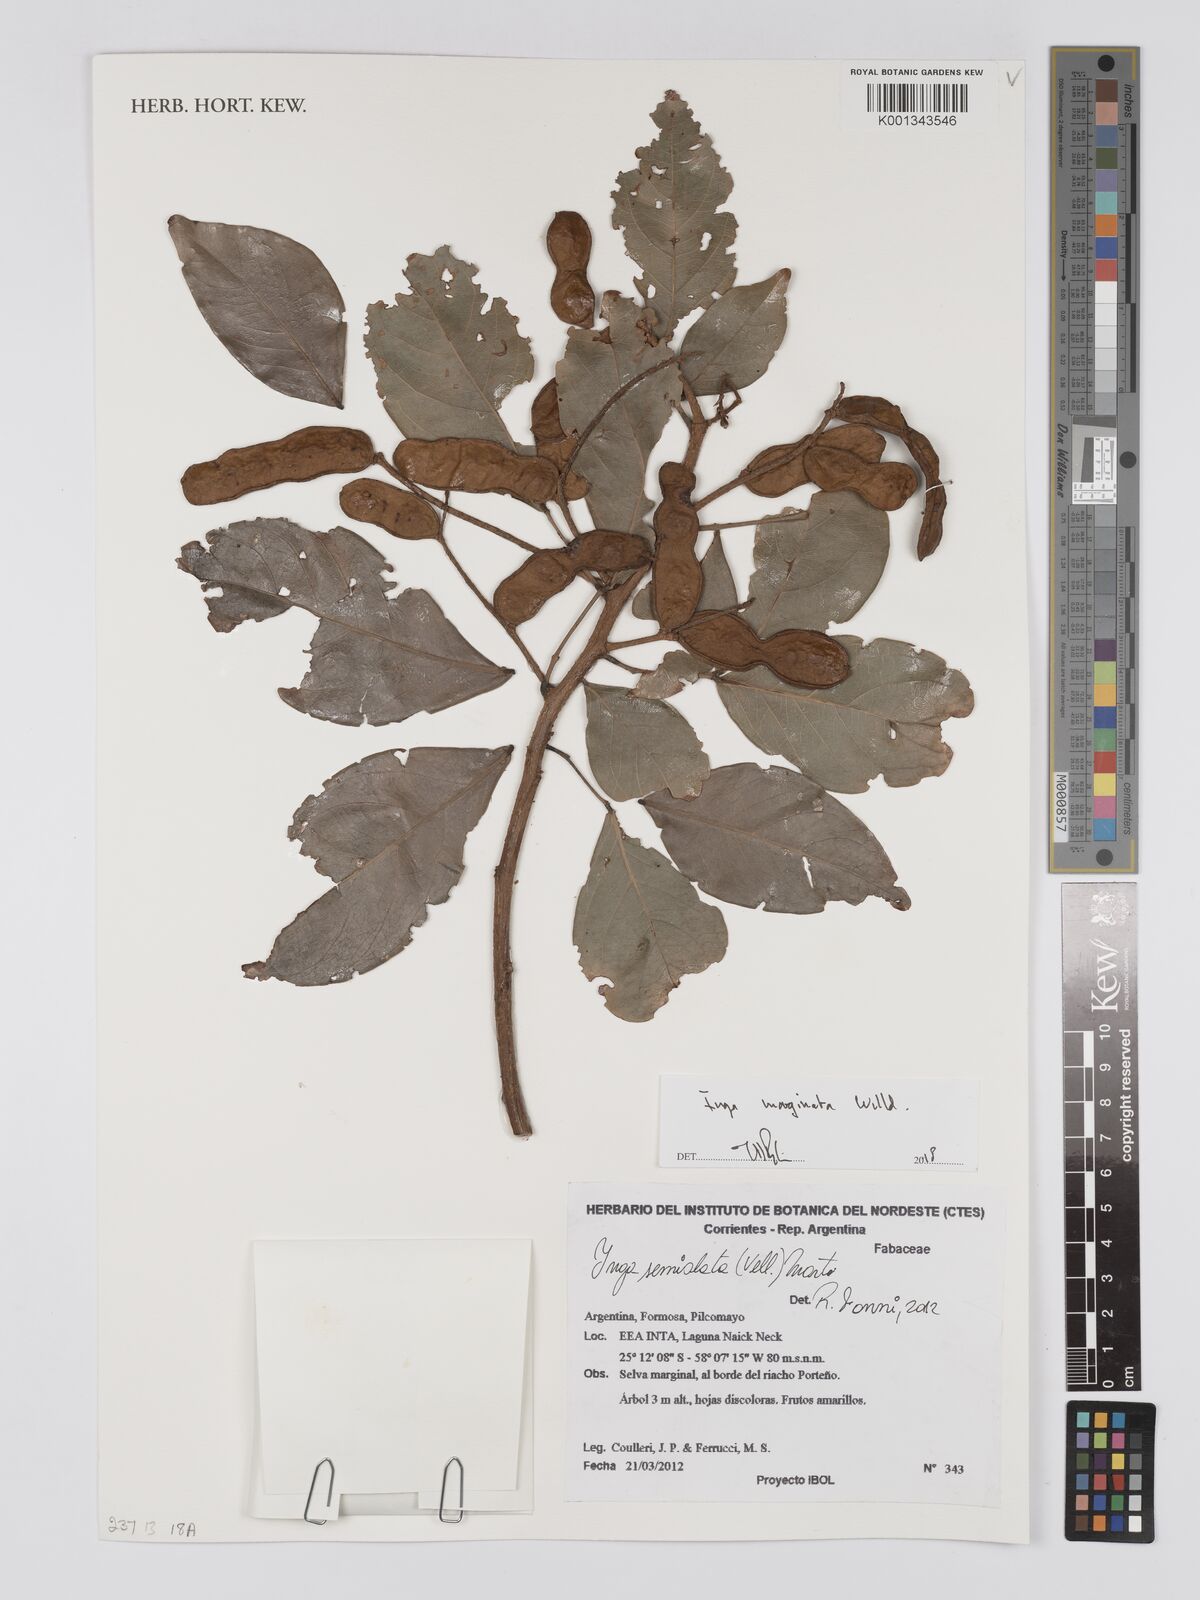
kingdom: Plantae
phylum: Tracheophyta
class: Magnoliopsida
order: Fabales
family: Fabaceae
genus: Inga
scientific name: Inga marginata
